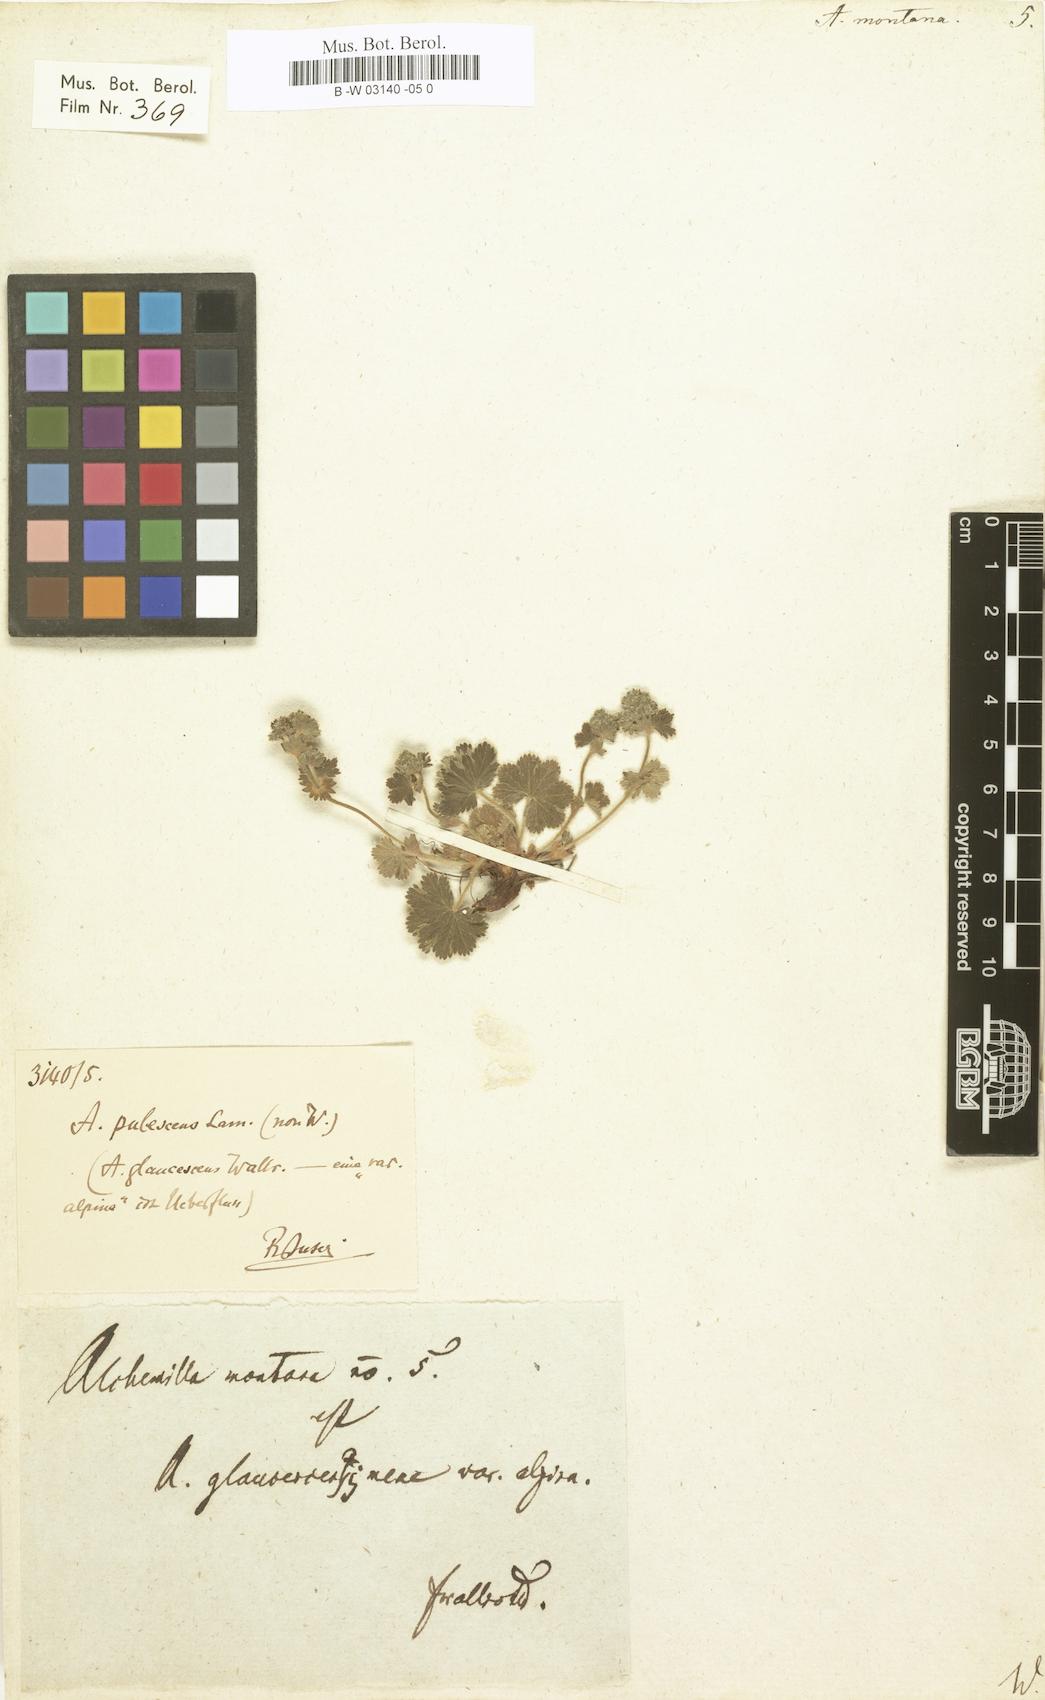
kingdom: Plantae
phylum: Tracheophyta
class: Magnoliopsida
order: Rosales
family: Rosaceae
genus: Alchemilla
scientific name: Alchemilla connivens
